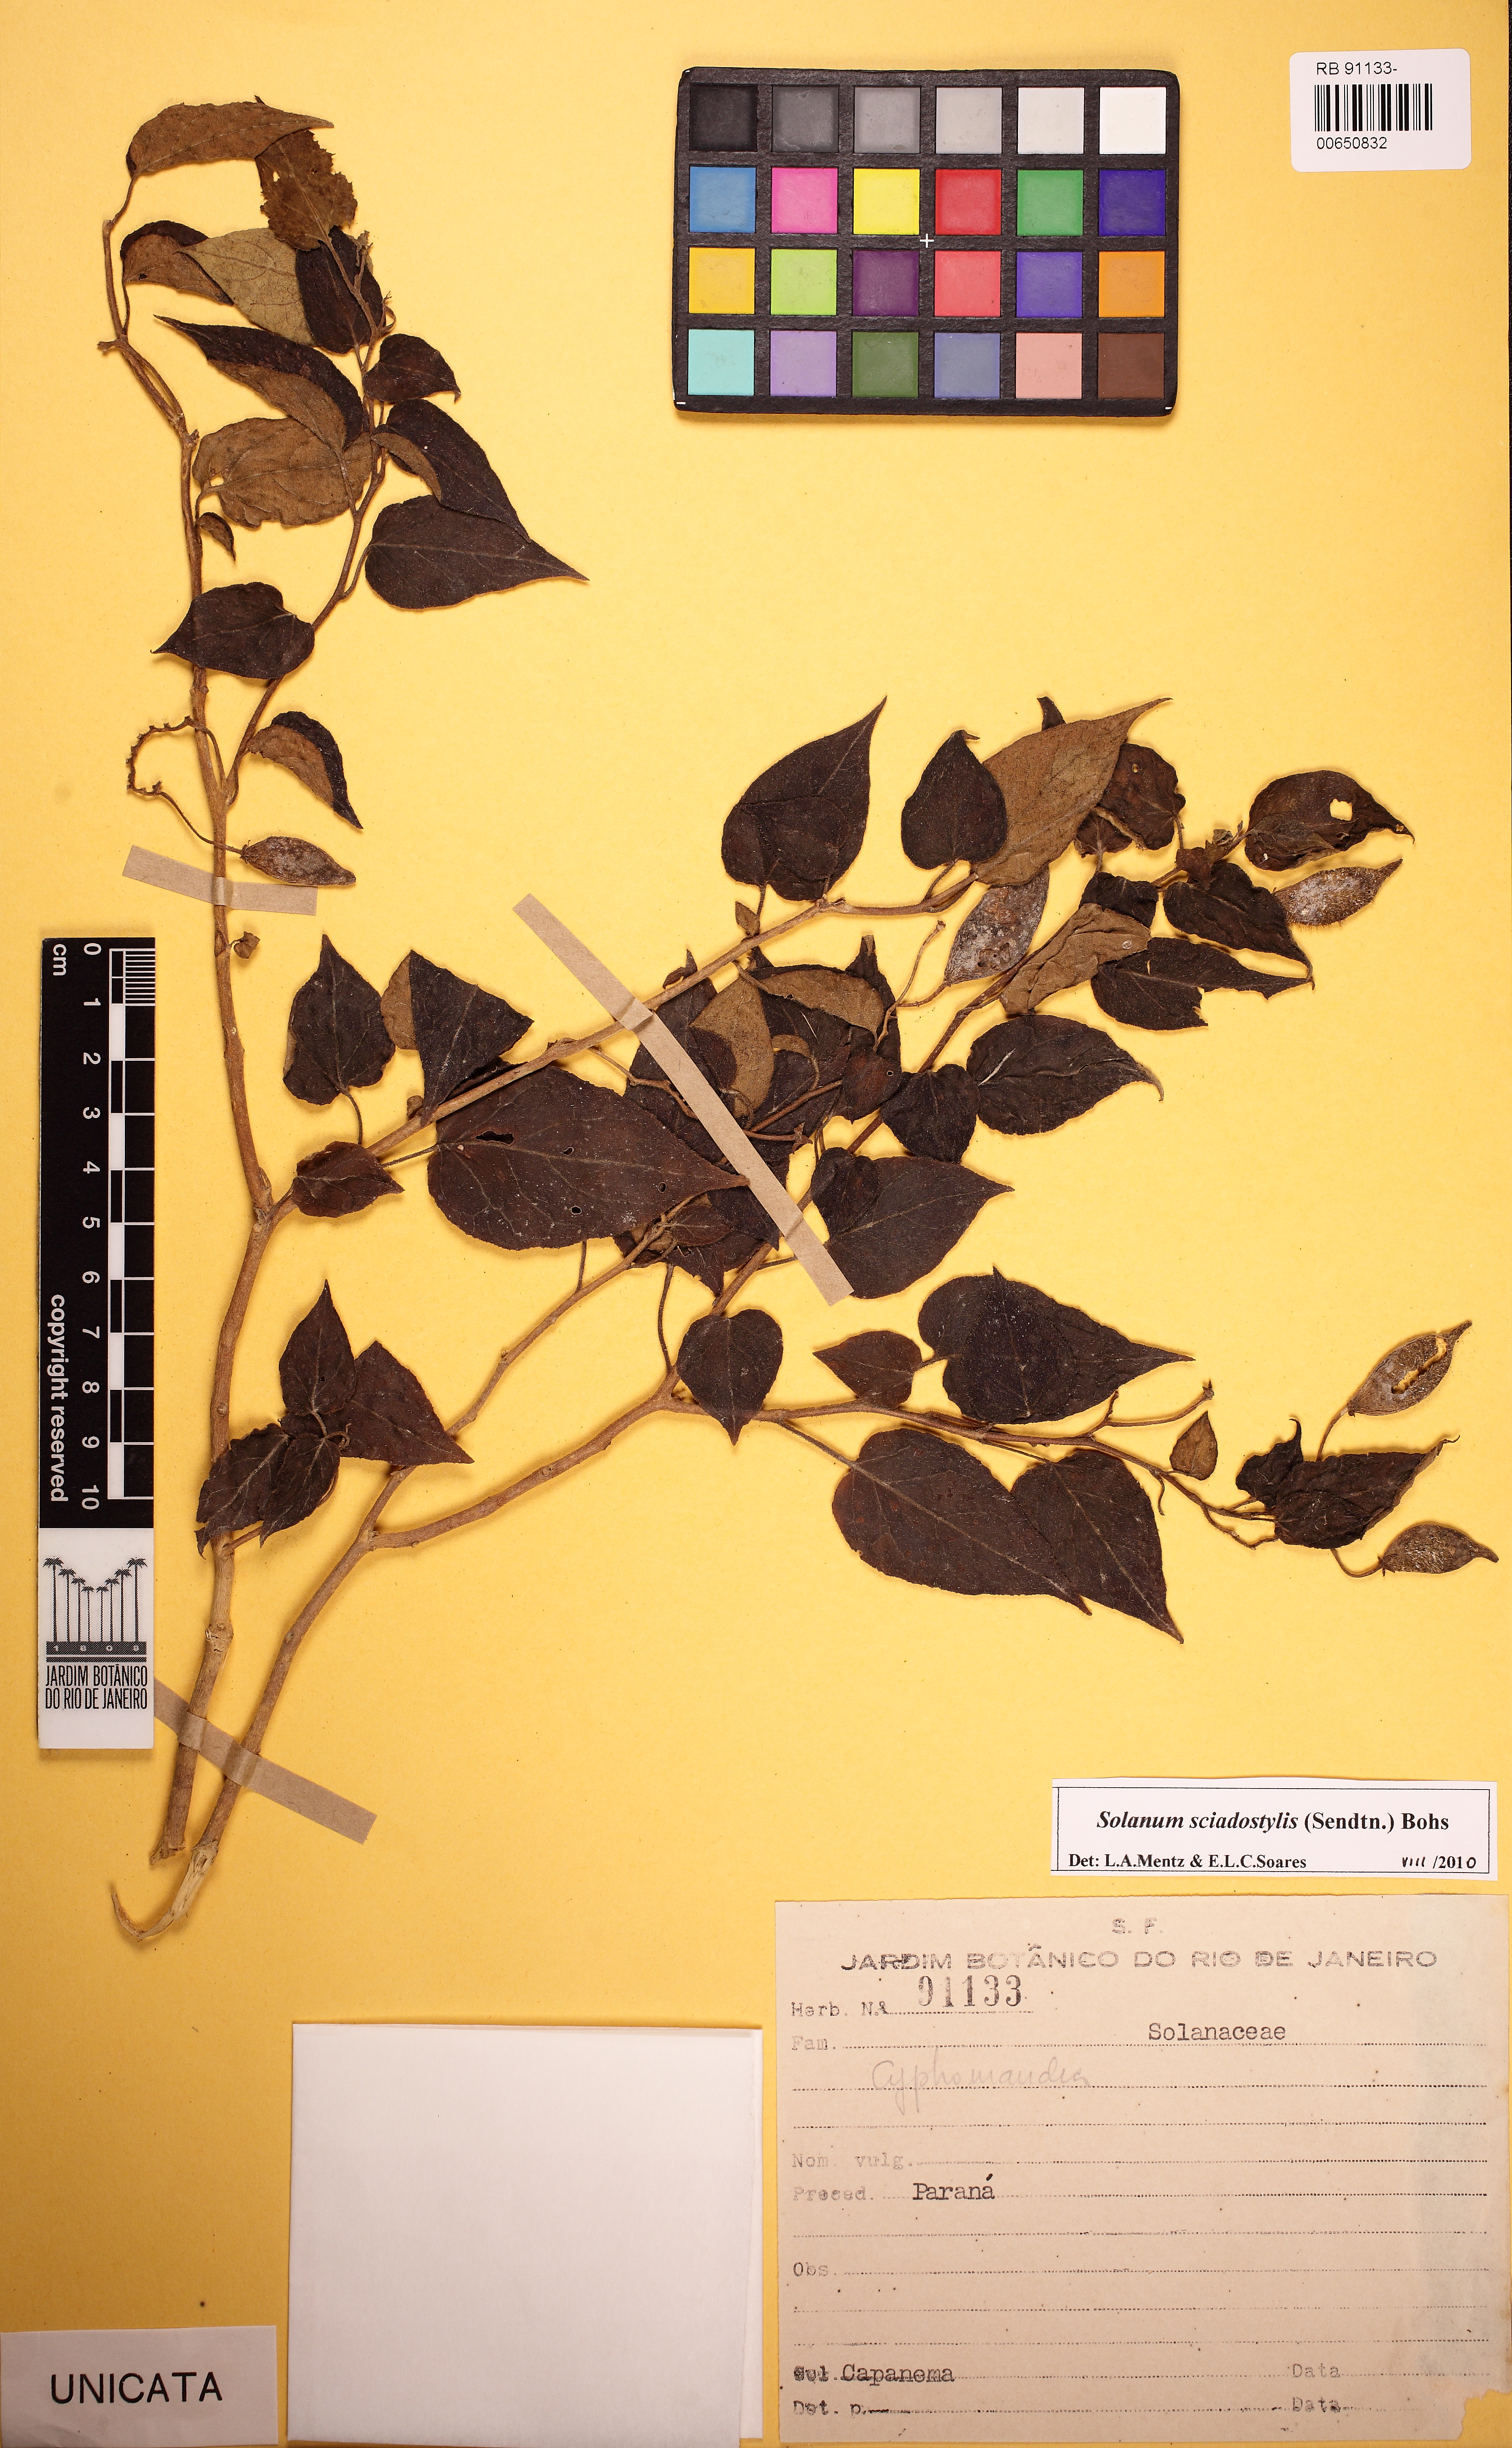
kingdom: Plantae
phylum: Tracheophyta
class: Magnoliopsida
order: Solanales
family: Solanaceae
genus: Solanum
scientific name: Solanum sciadostylis
